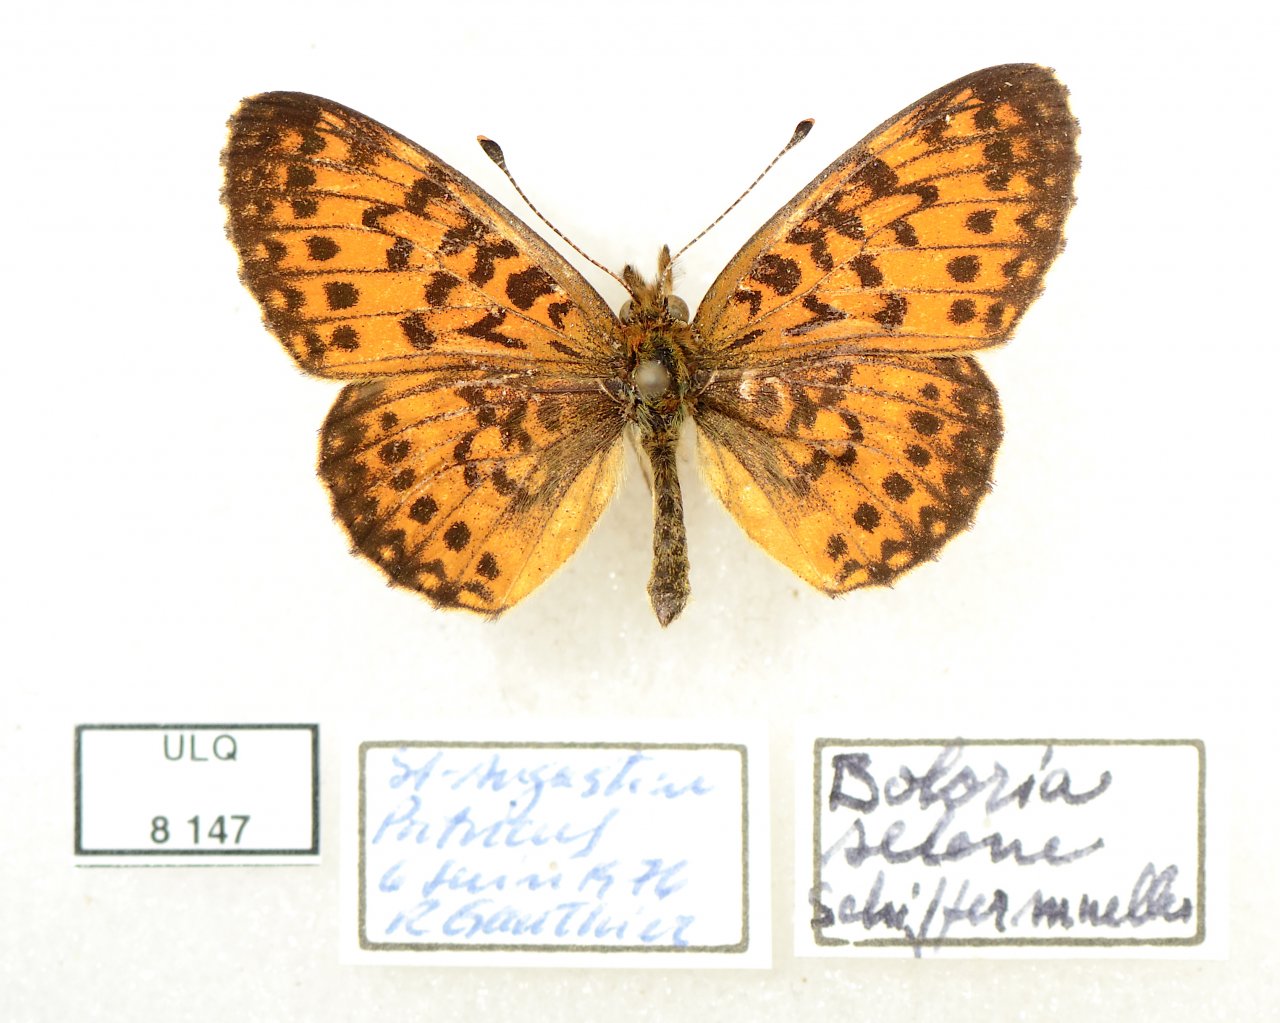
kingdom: Animalia
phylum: Arthropoda
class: Insecta
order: Lepidoptera
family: Nymphalidae
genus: Boloria
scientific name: Boloria selene
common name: Silver-bordered Fritillary
